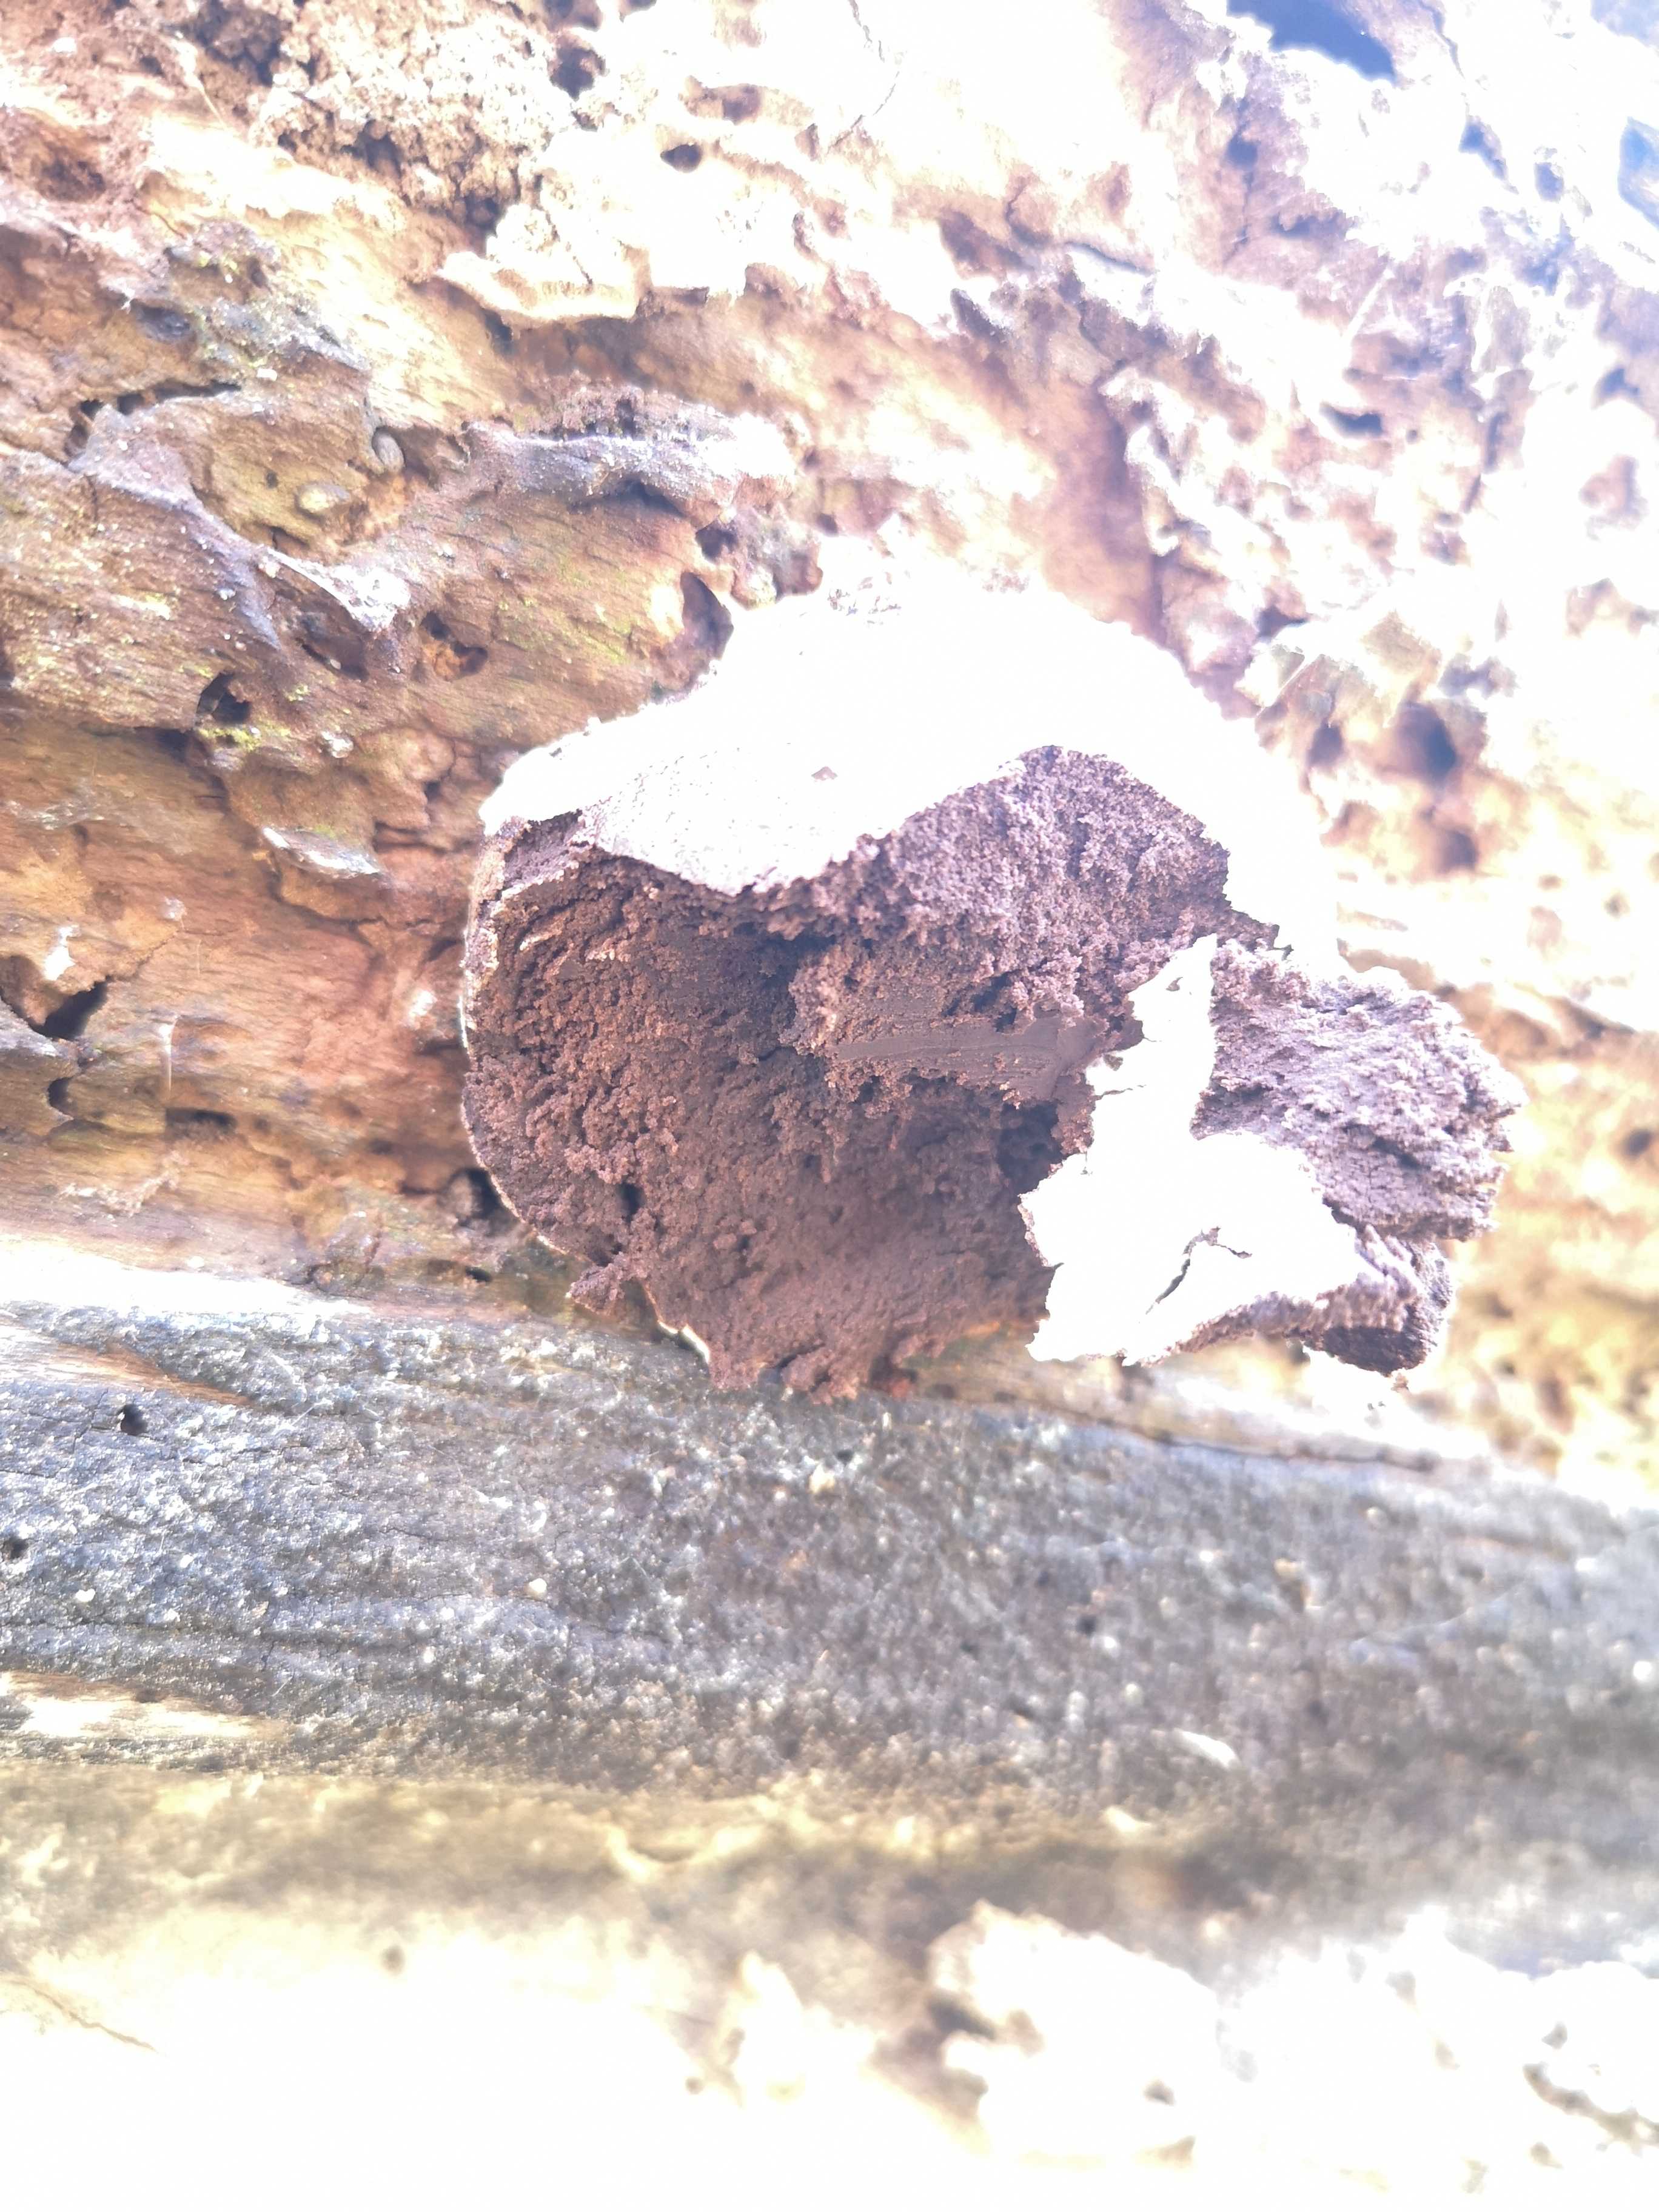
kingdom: Protozoa
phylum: Mycetozoa
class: Myxomycetes
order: Cribrariales
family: Tubiferaceae
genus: Reticularia
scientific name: Reticularia lycoperdon
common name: skinnende støvpude
